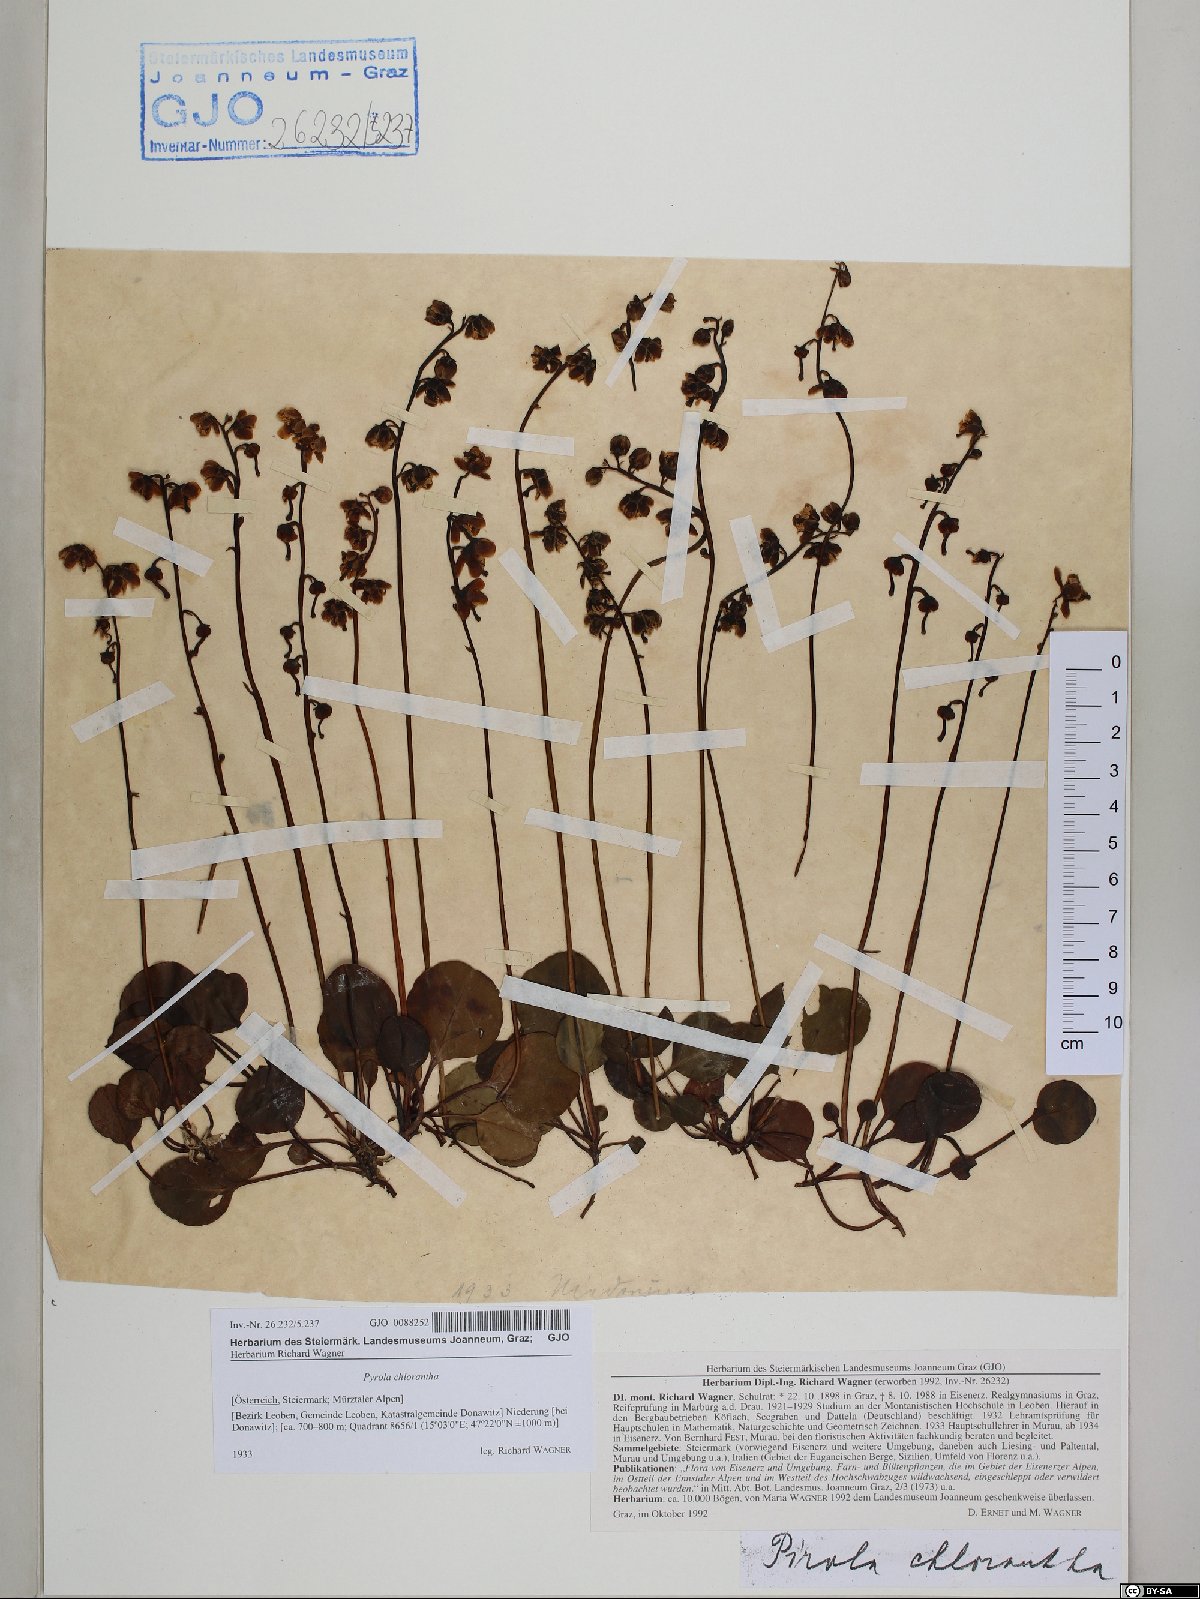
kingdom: Plantae
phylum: Tracheophyta
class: Magnoliopsida
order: Ericales
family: Ericaceae
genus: Pyrola
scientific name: Pyrola chlorantha
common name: Green wintergreen
